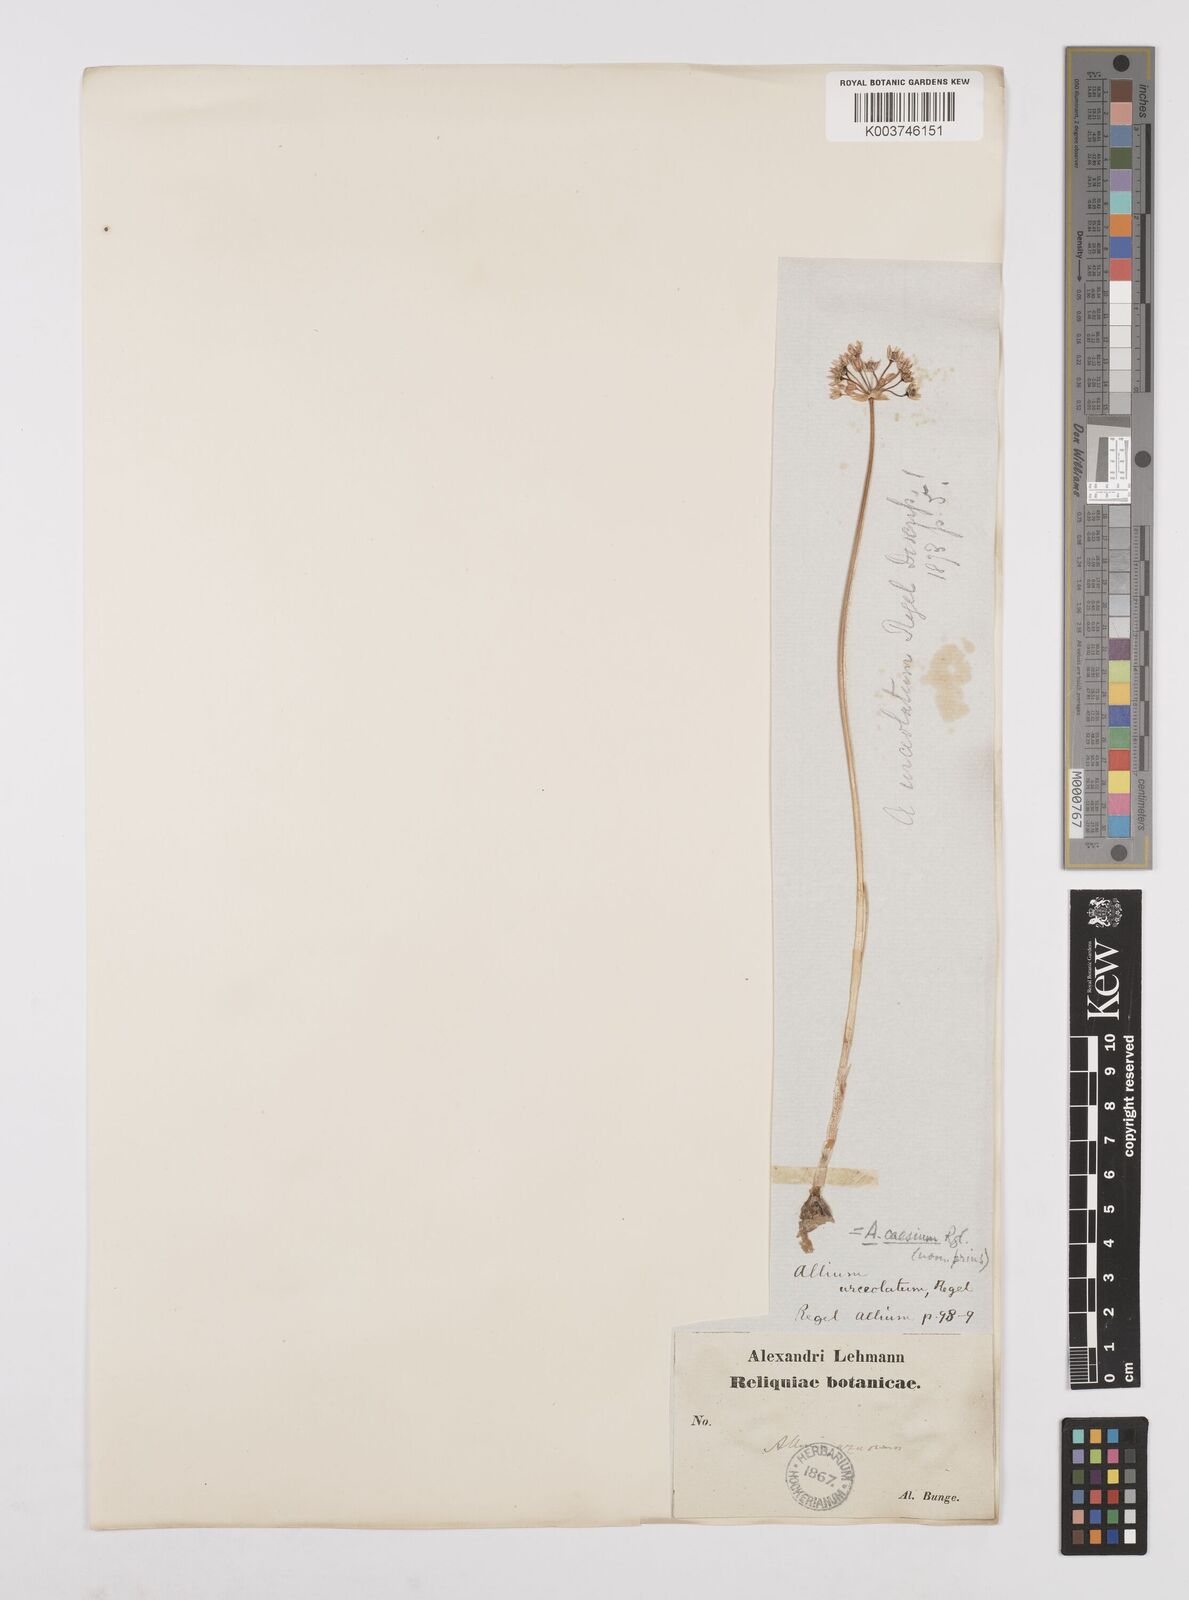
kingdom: Plantae
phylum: Tracheophyta
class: Liliopsida
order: Asparagales
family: Amaryllidaceae
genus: Allium
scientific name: Allium caesium
